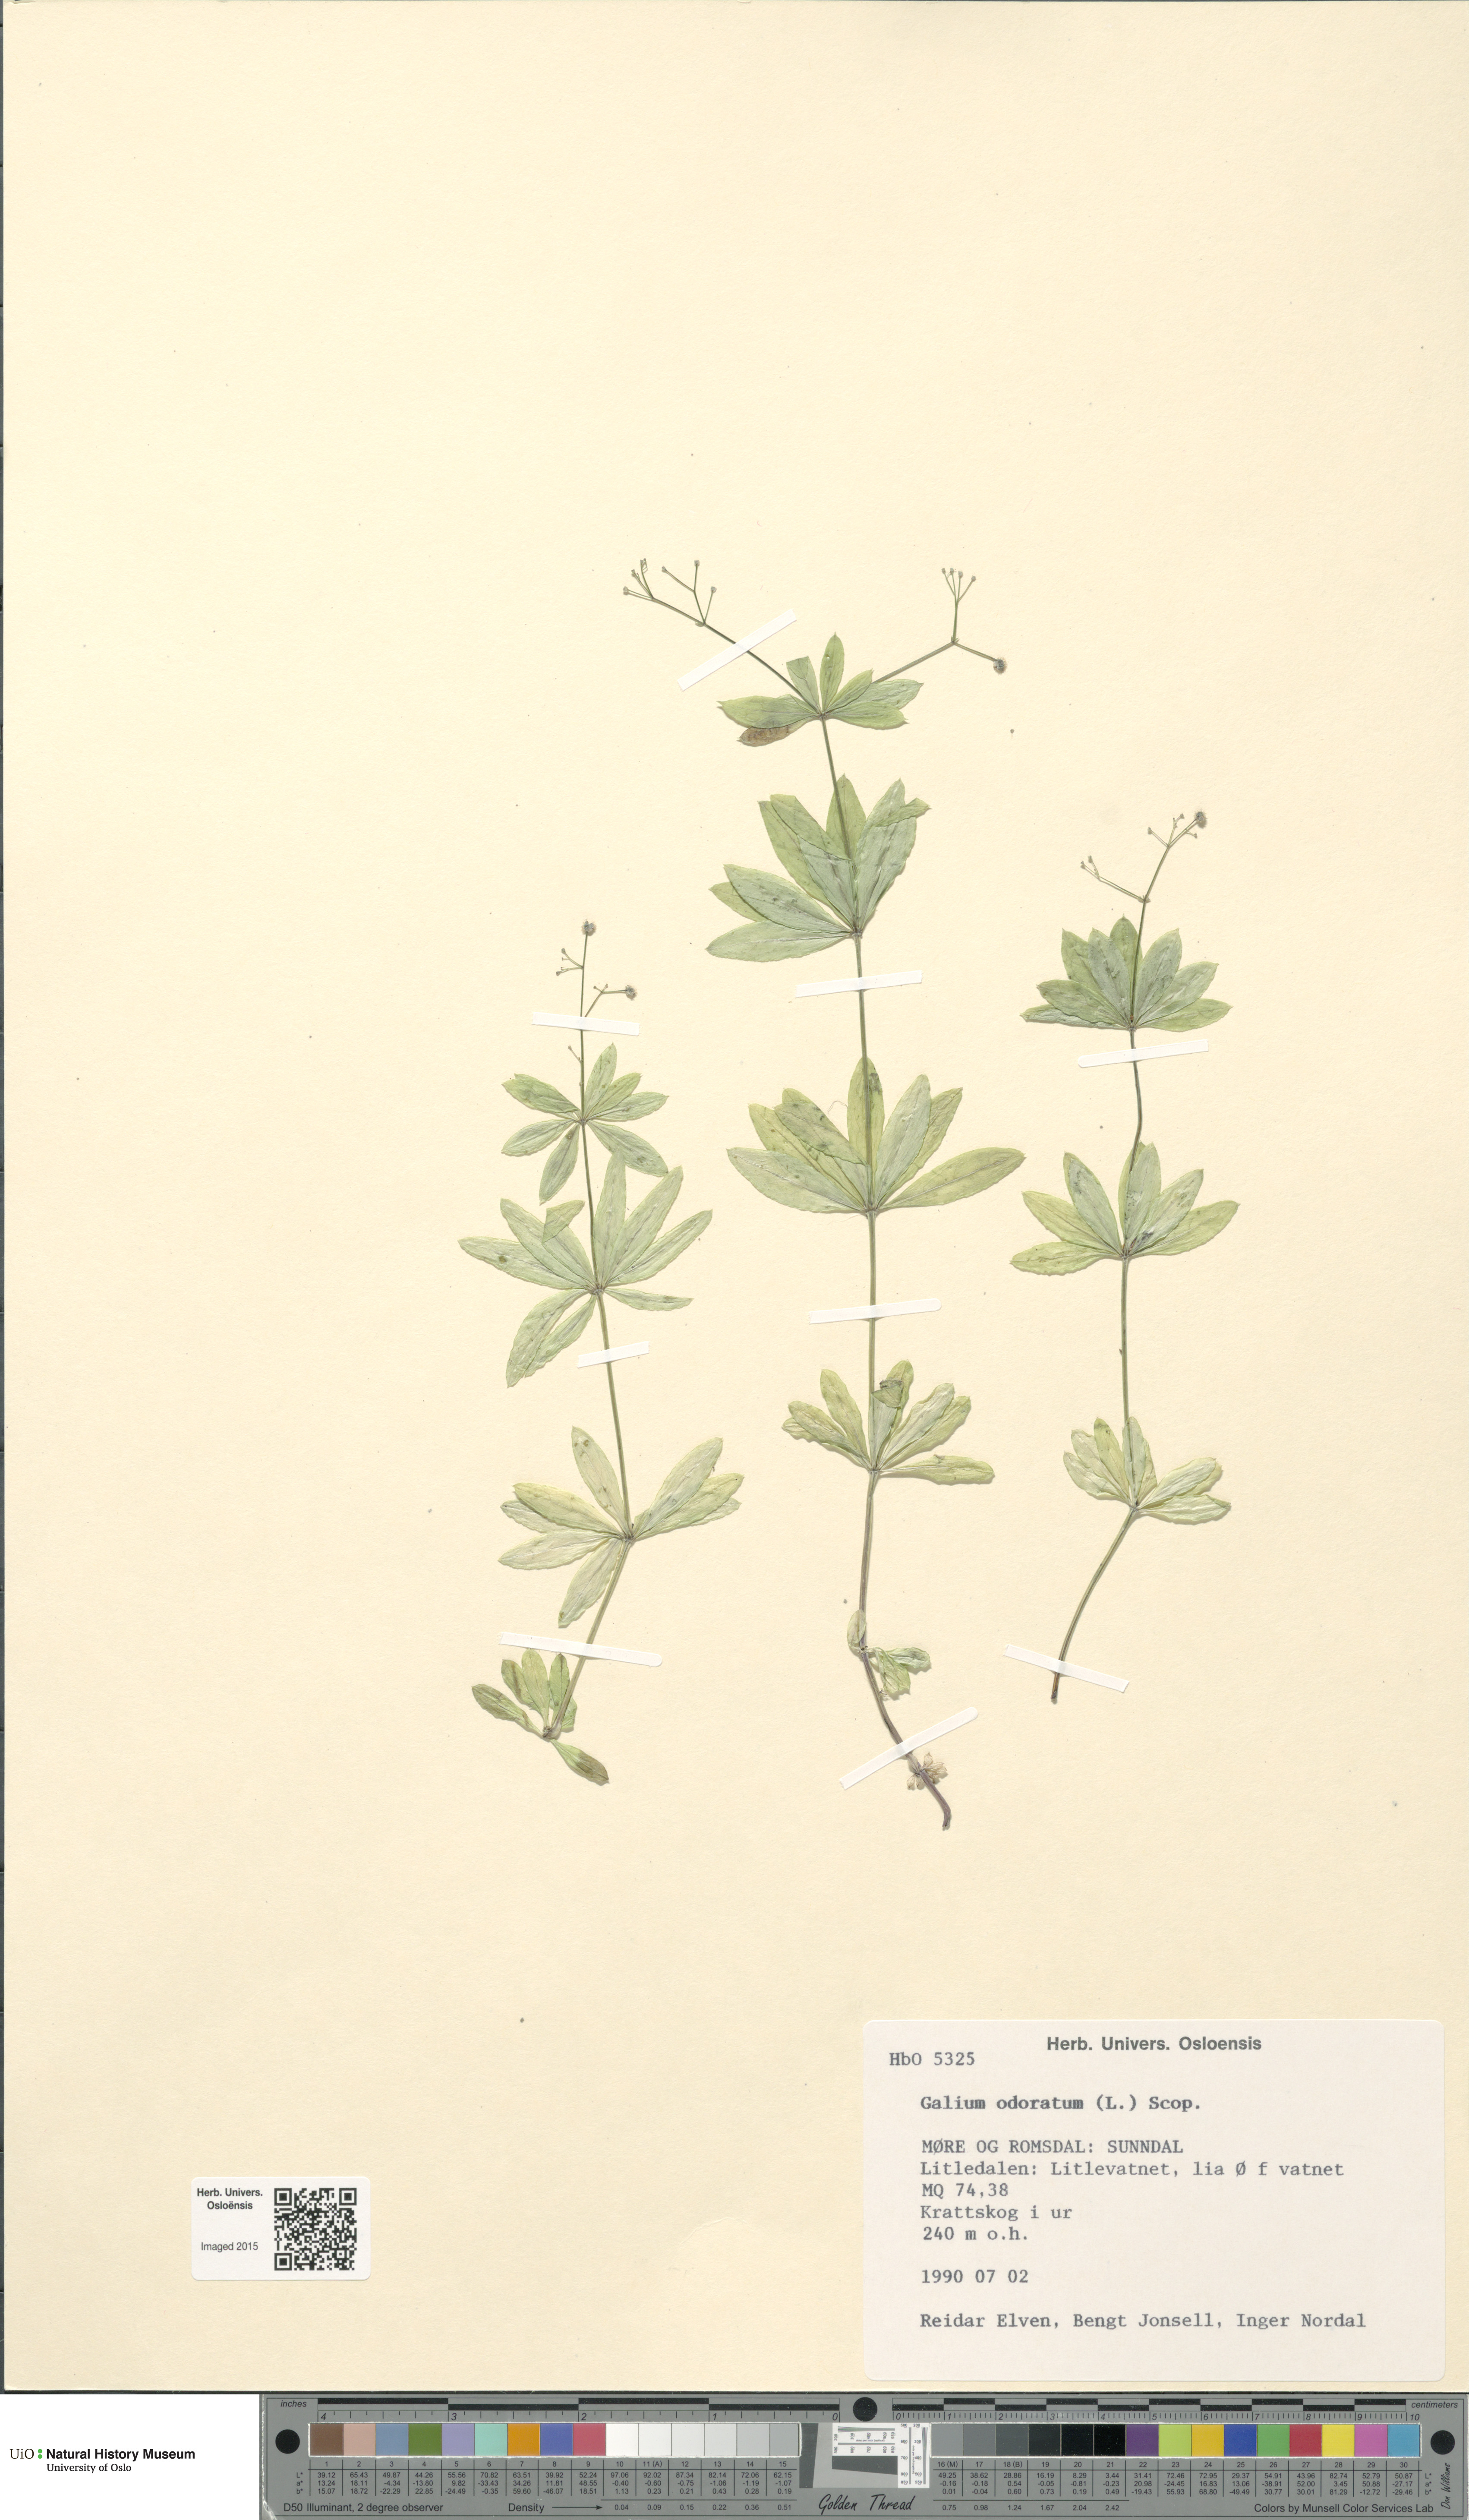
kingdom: Plantae
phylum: Tracheophyta
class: Magnoliopsida
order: Gentianales
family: Rubiaceae
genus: Galium
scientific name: Galium odoratum
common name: Sweet woodruff
